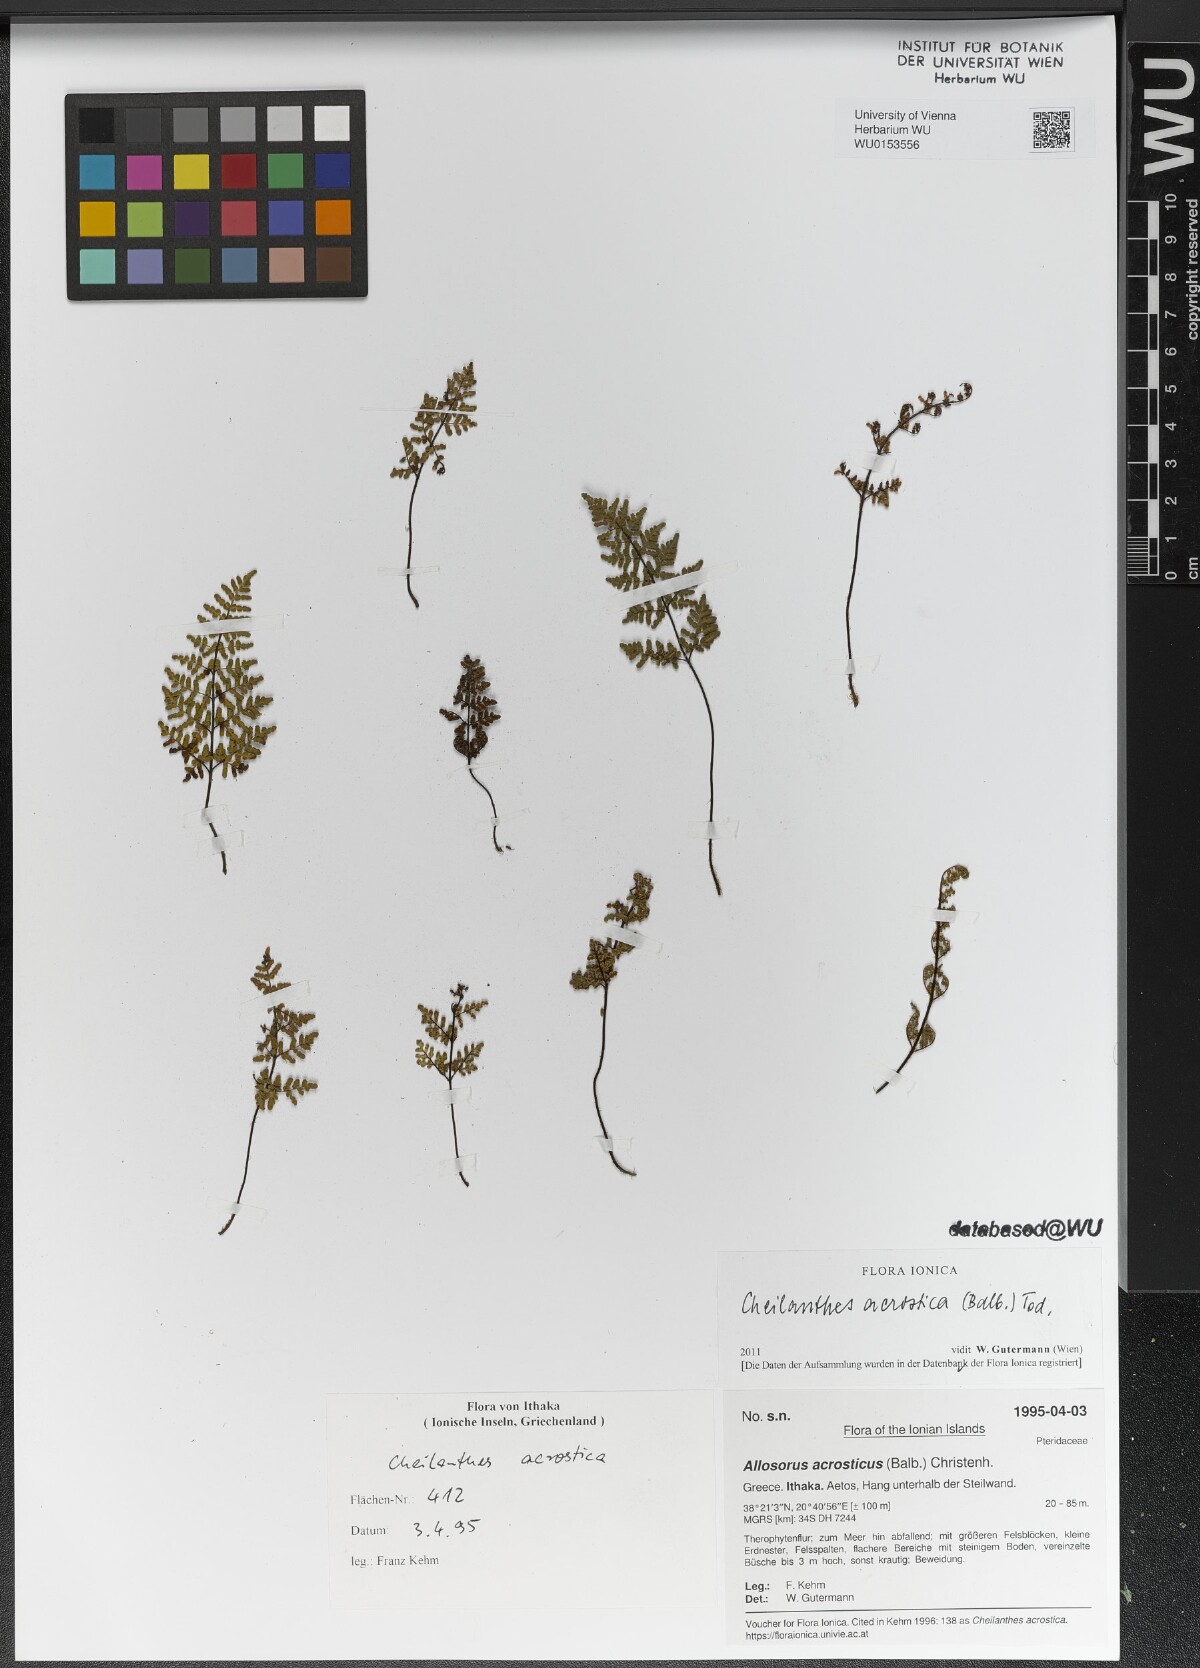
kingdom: Plantae
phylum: Tracheophyta
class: Polypodiopsida
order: Polypodiales
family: Pteridaceae
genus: Oeosporangium
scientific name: Oeosporangium pteridioides
